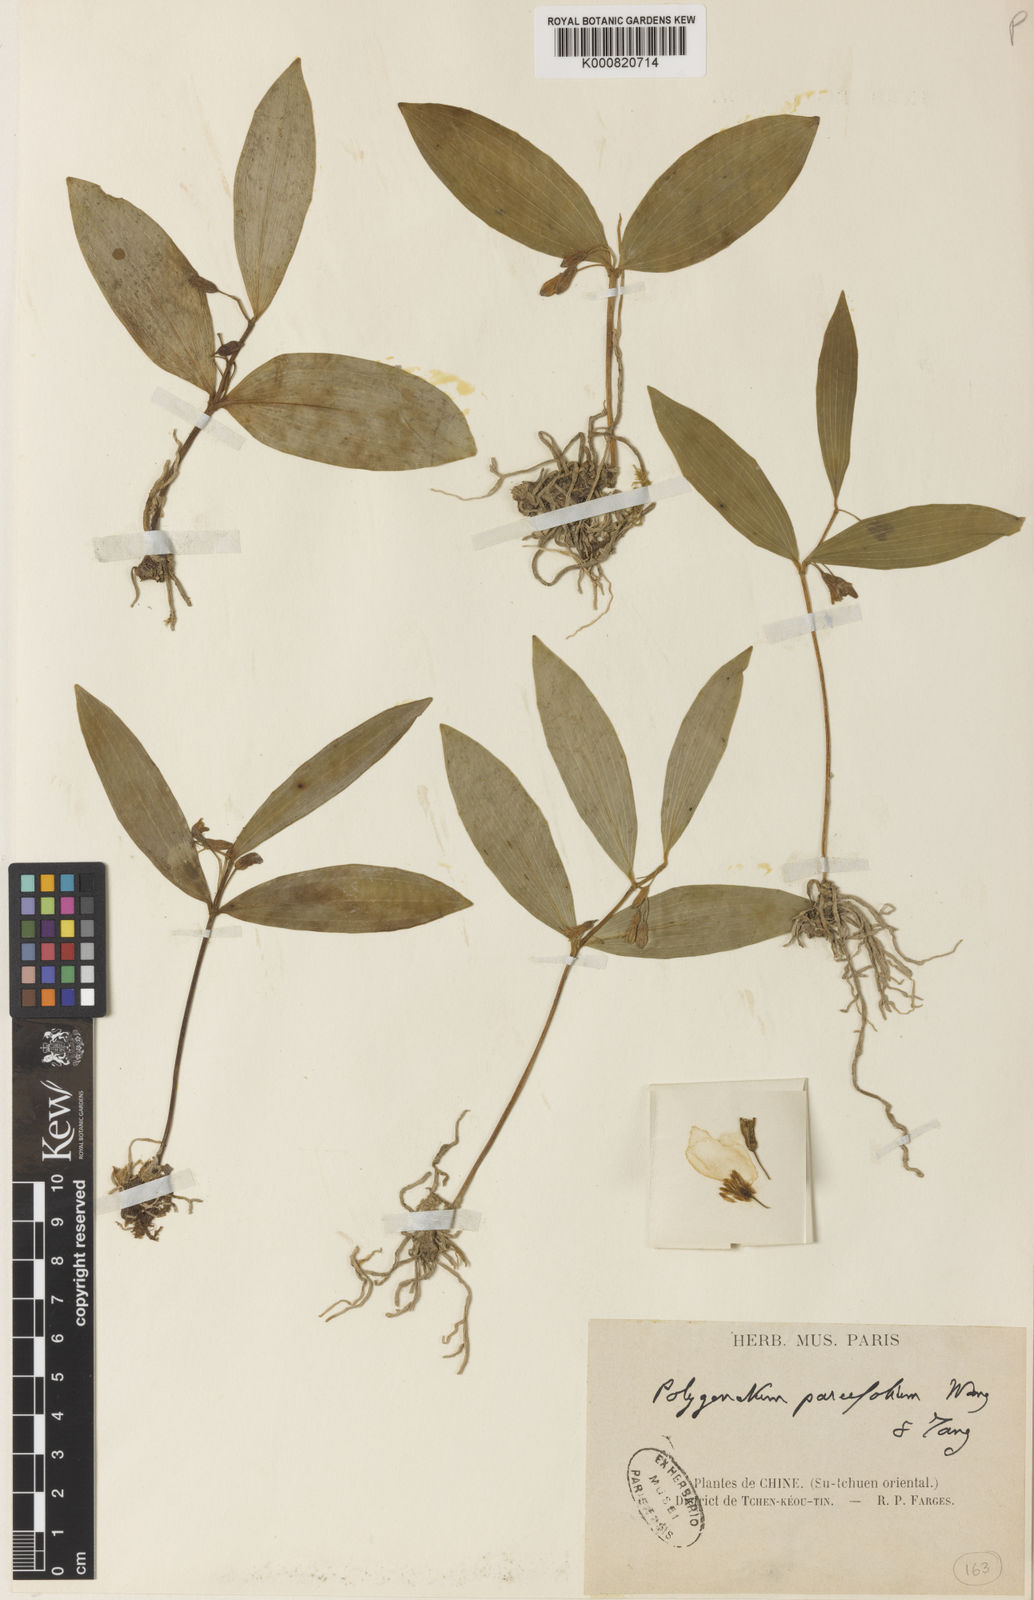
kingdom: Plantae
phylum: Tracheophyta
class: Liliopsida
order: Asparagales
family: Asparagaceae
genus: Polygonatum
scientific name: Polygonatum punctatum
